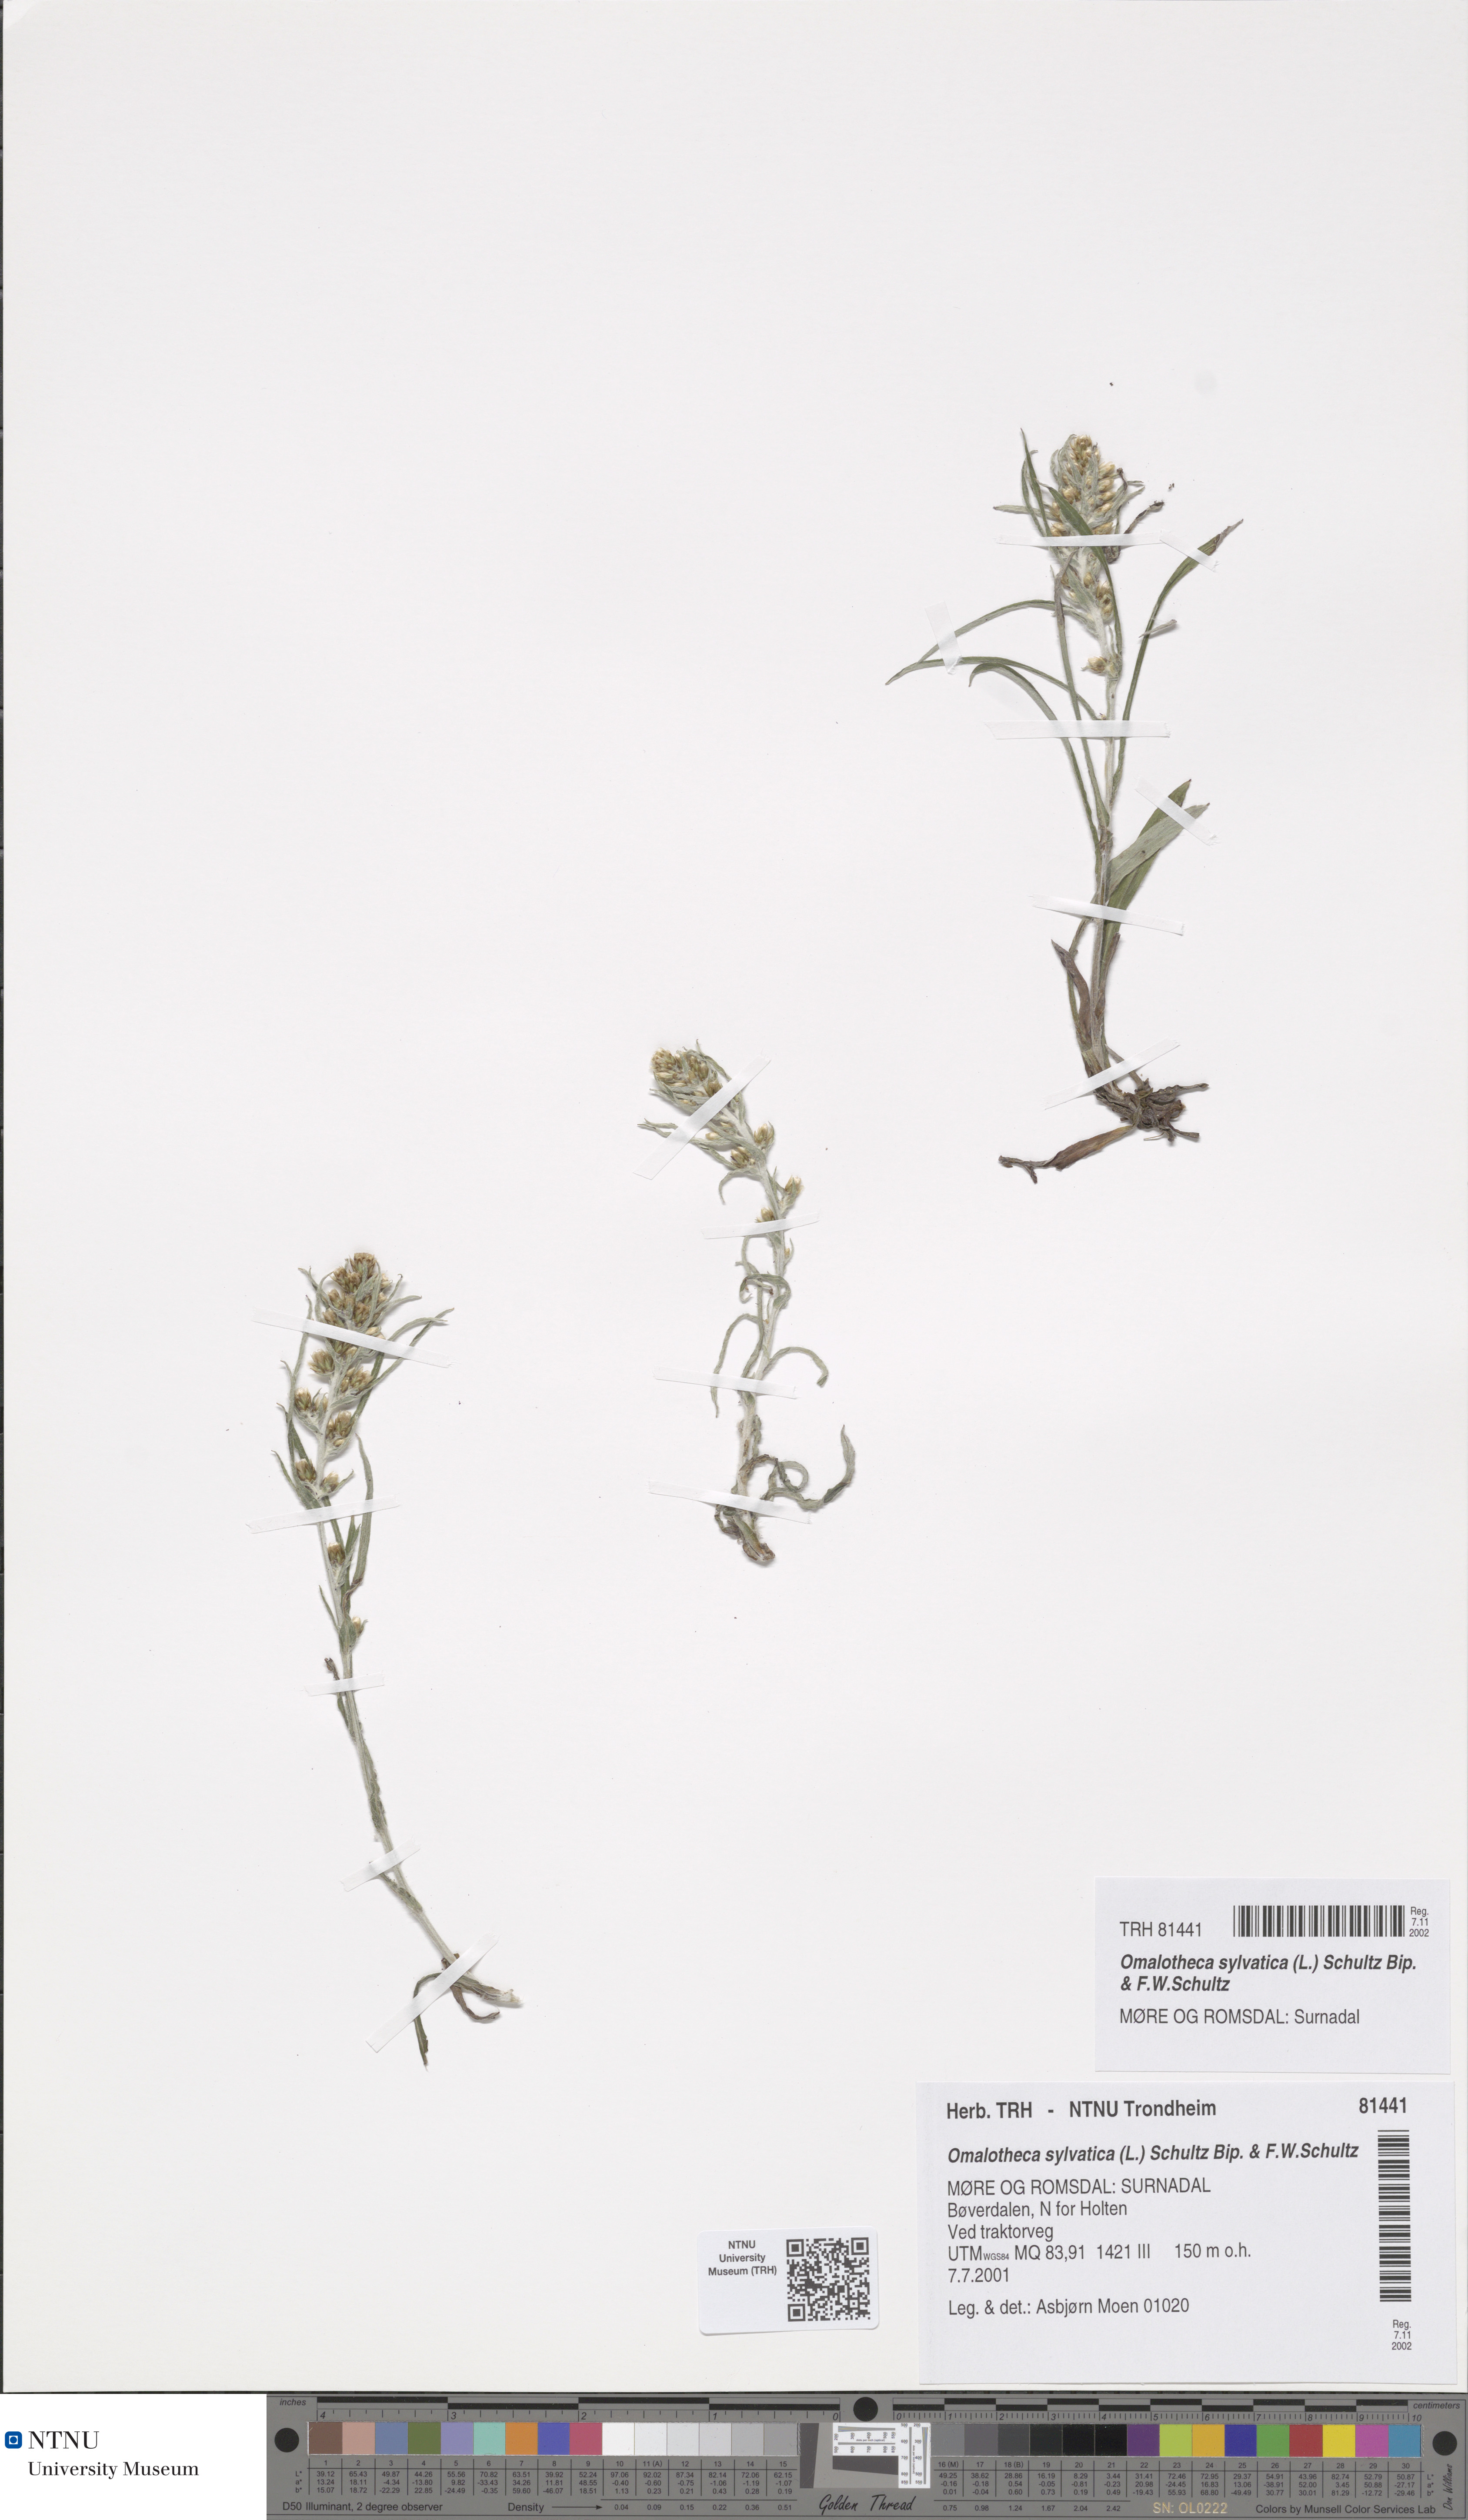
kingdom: Plantae
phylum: Tracheophyta
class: Magnoliopsida
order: Asterales
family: Asteraceae
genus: Omalotheca
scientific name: Omalotheca sylvatica
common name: Heath cudweed
